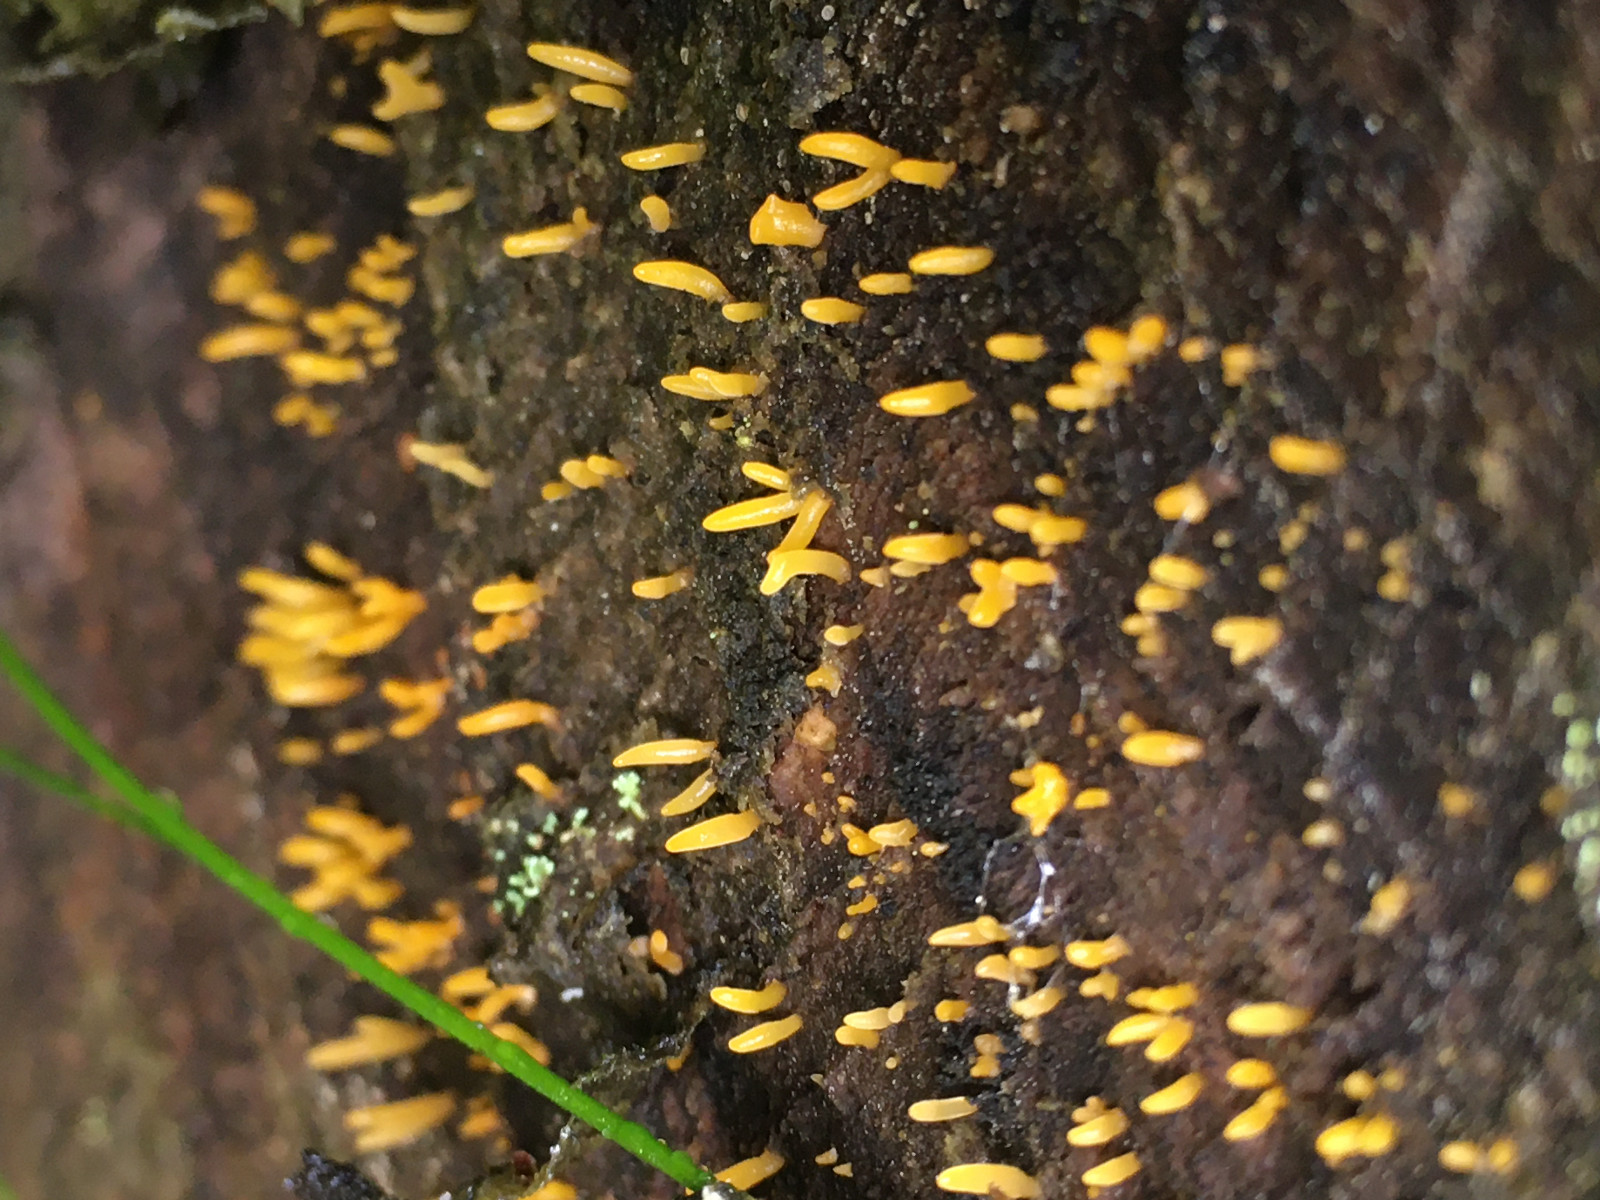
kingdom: Fungi
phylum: Basidiomycota
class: Dacrymycetes
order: Dacrymycetales
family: Dacrymycetaceae
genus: Calocera
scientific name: Calocera
